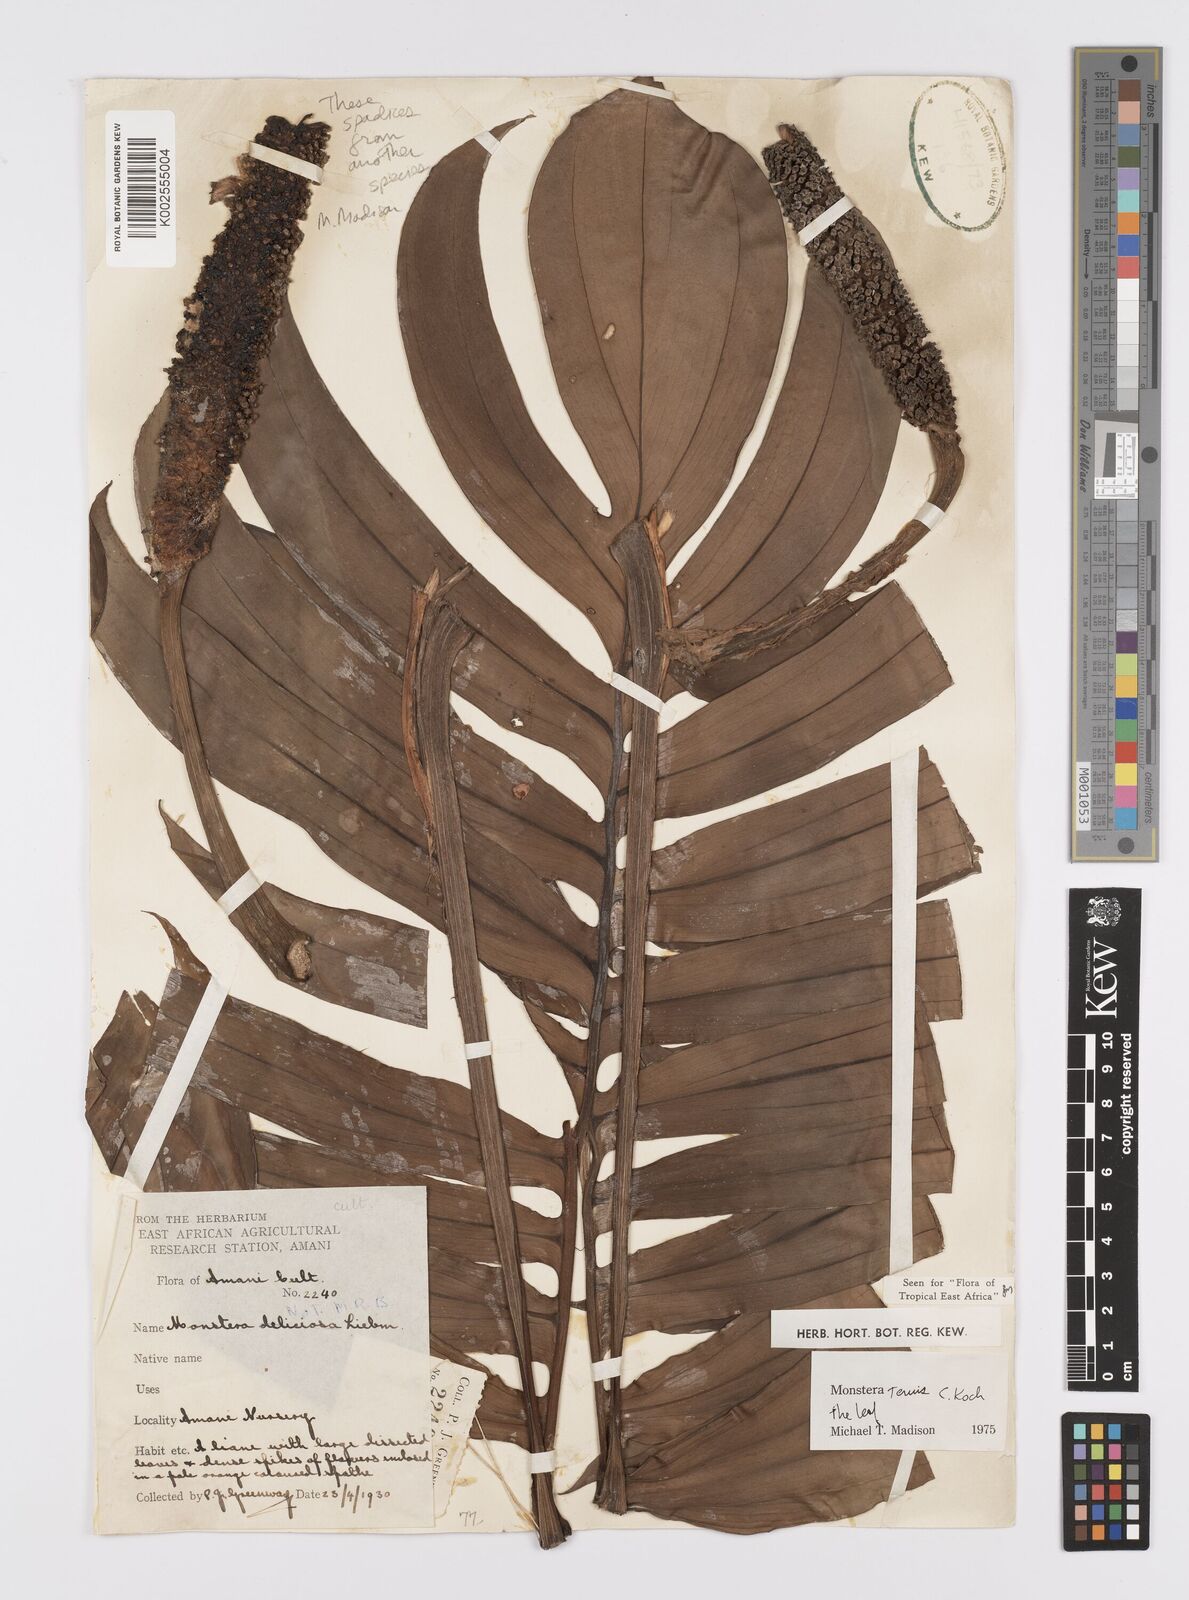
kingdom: Plantae
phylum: Tracheophyta
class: Liliopsida
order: Alismatales
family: Araceae
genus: Monstera
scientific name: Monstera tenuis
